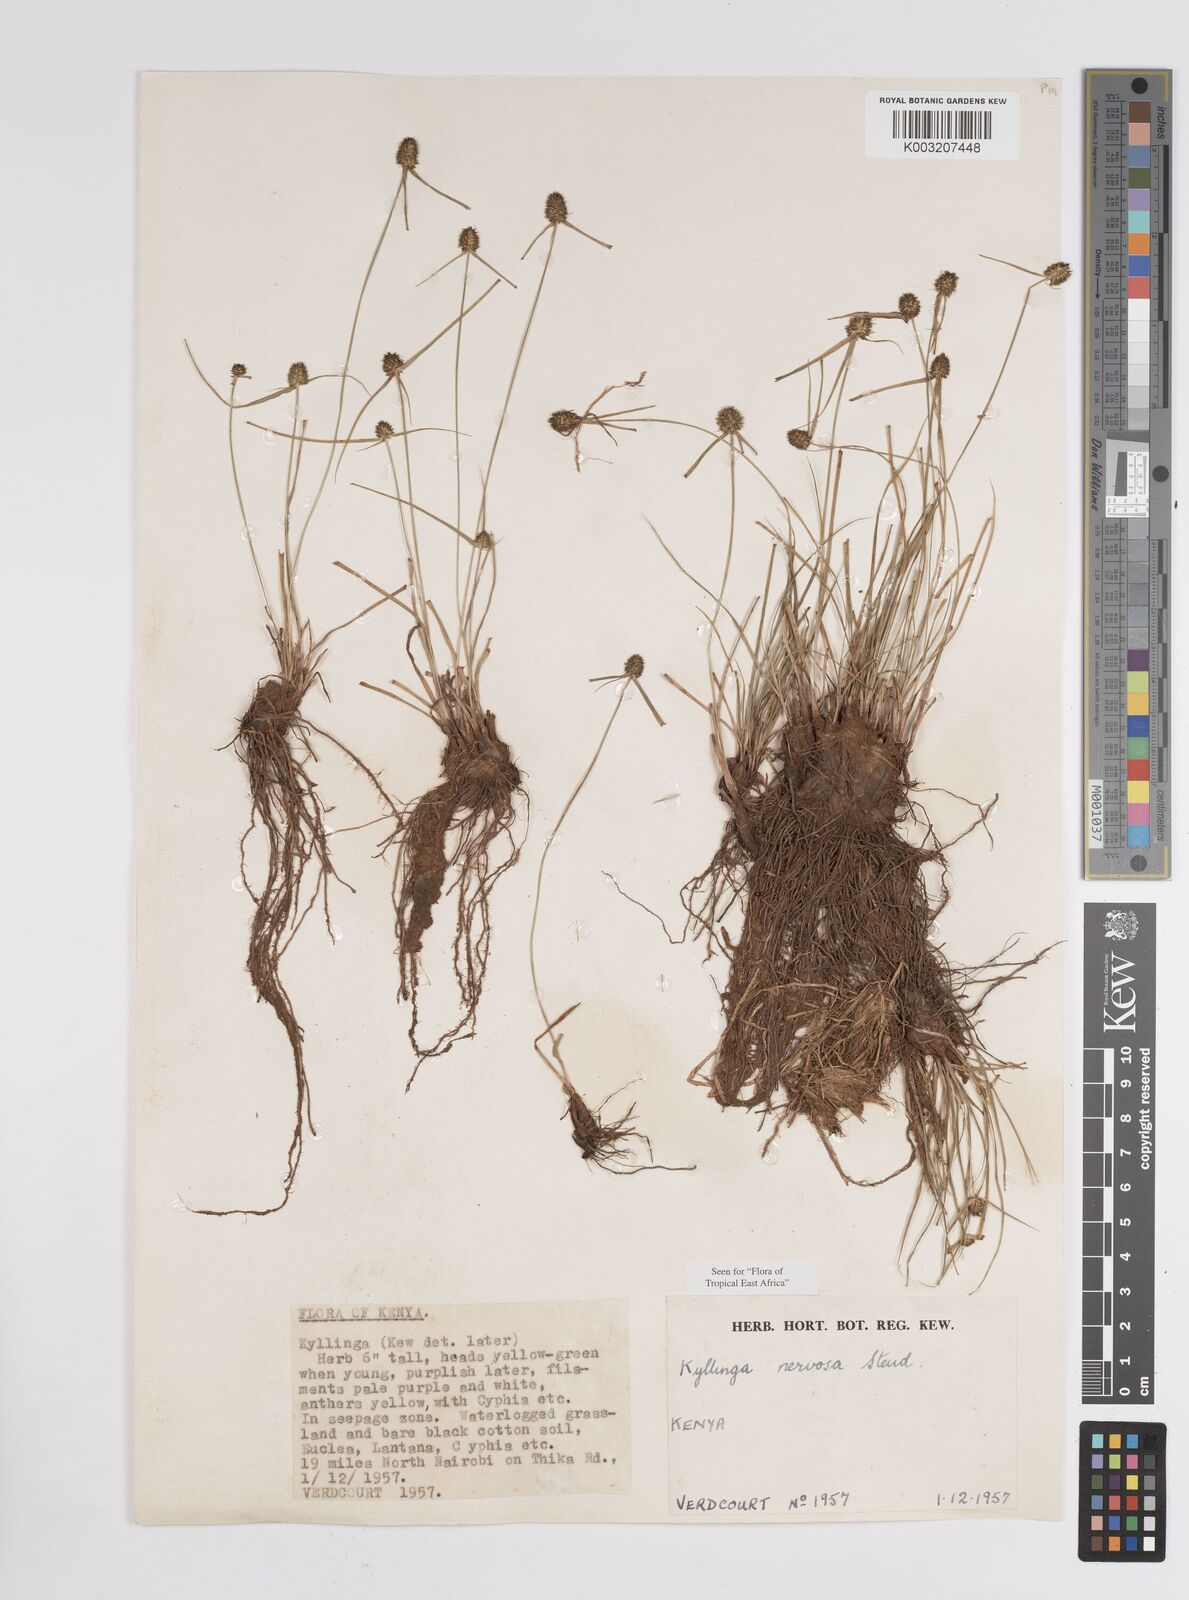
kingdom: Plantae
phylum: Tracheophyta
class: Liliopsida
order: Poales
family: Cyperaceae
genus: Cyperus
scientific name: Cyperus
